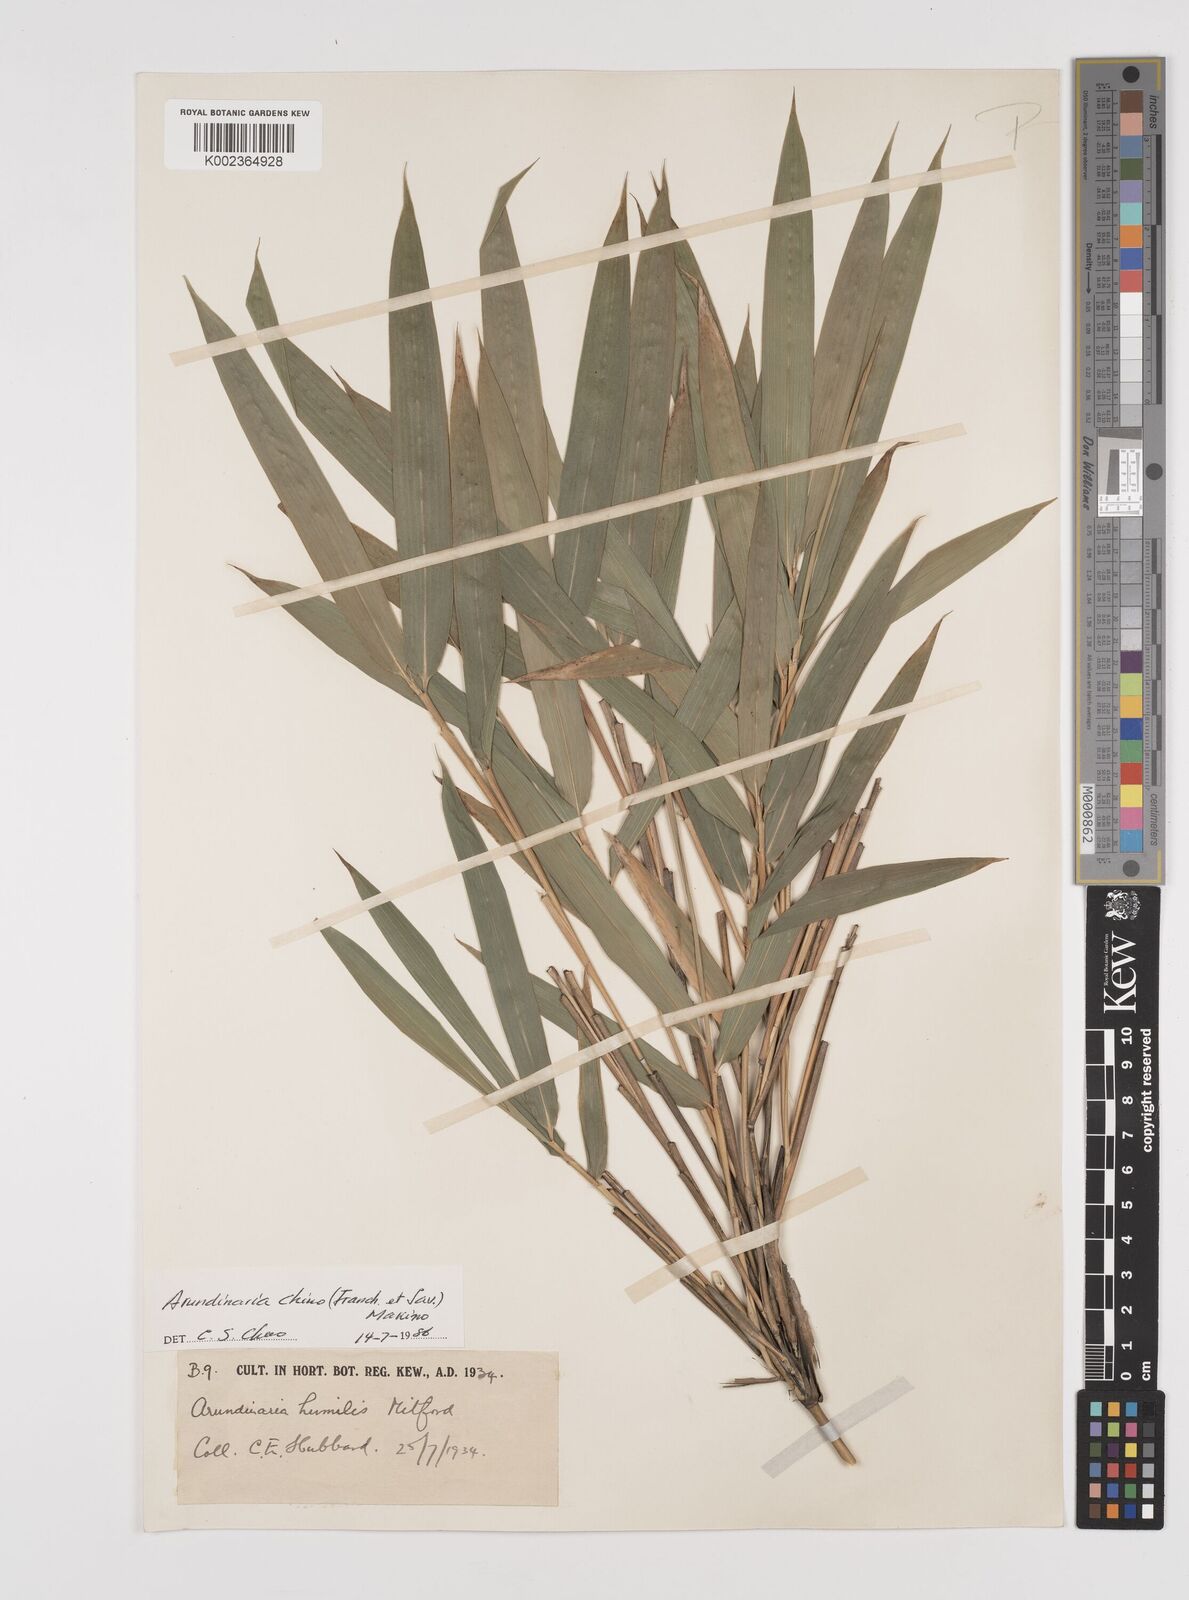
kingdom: Plantae
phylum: Tracheophyta
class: Liliopsida
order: Poales
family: Poaceae
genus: Pleioblastus
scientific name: Pleioblastus argenteostriatus
